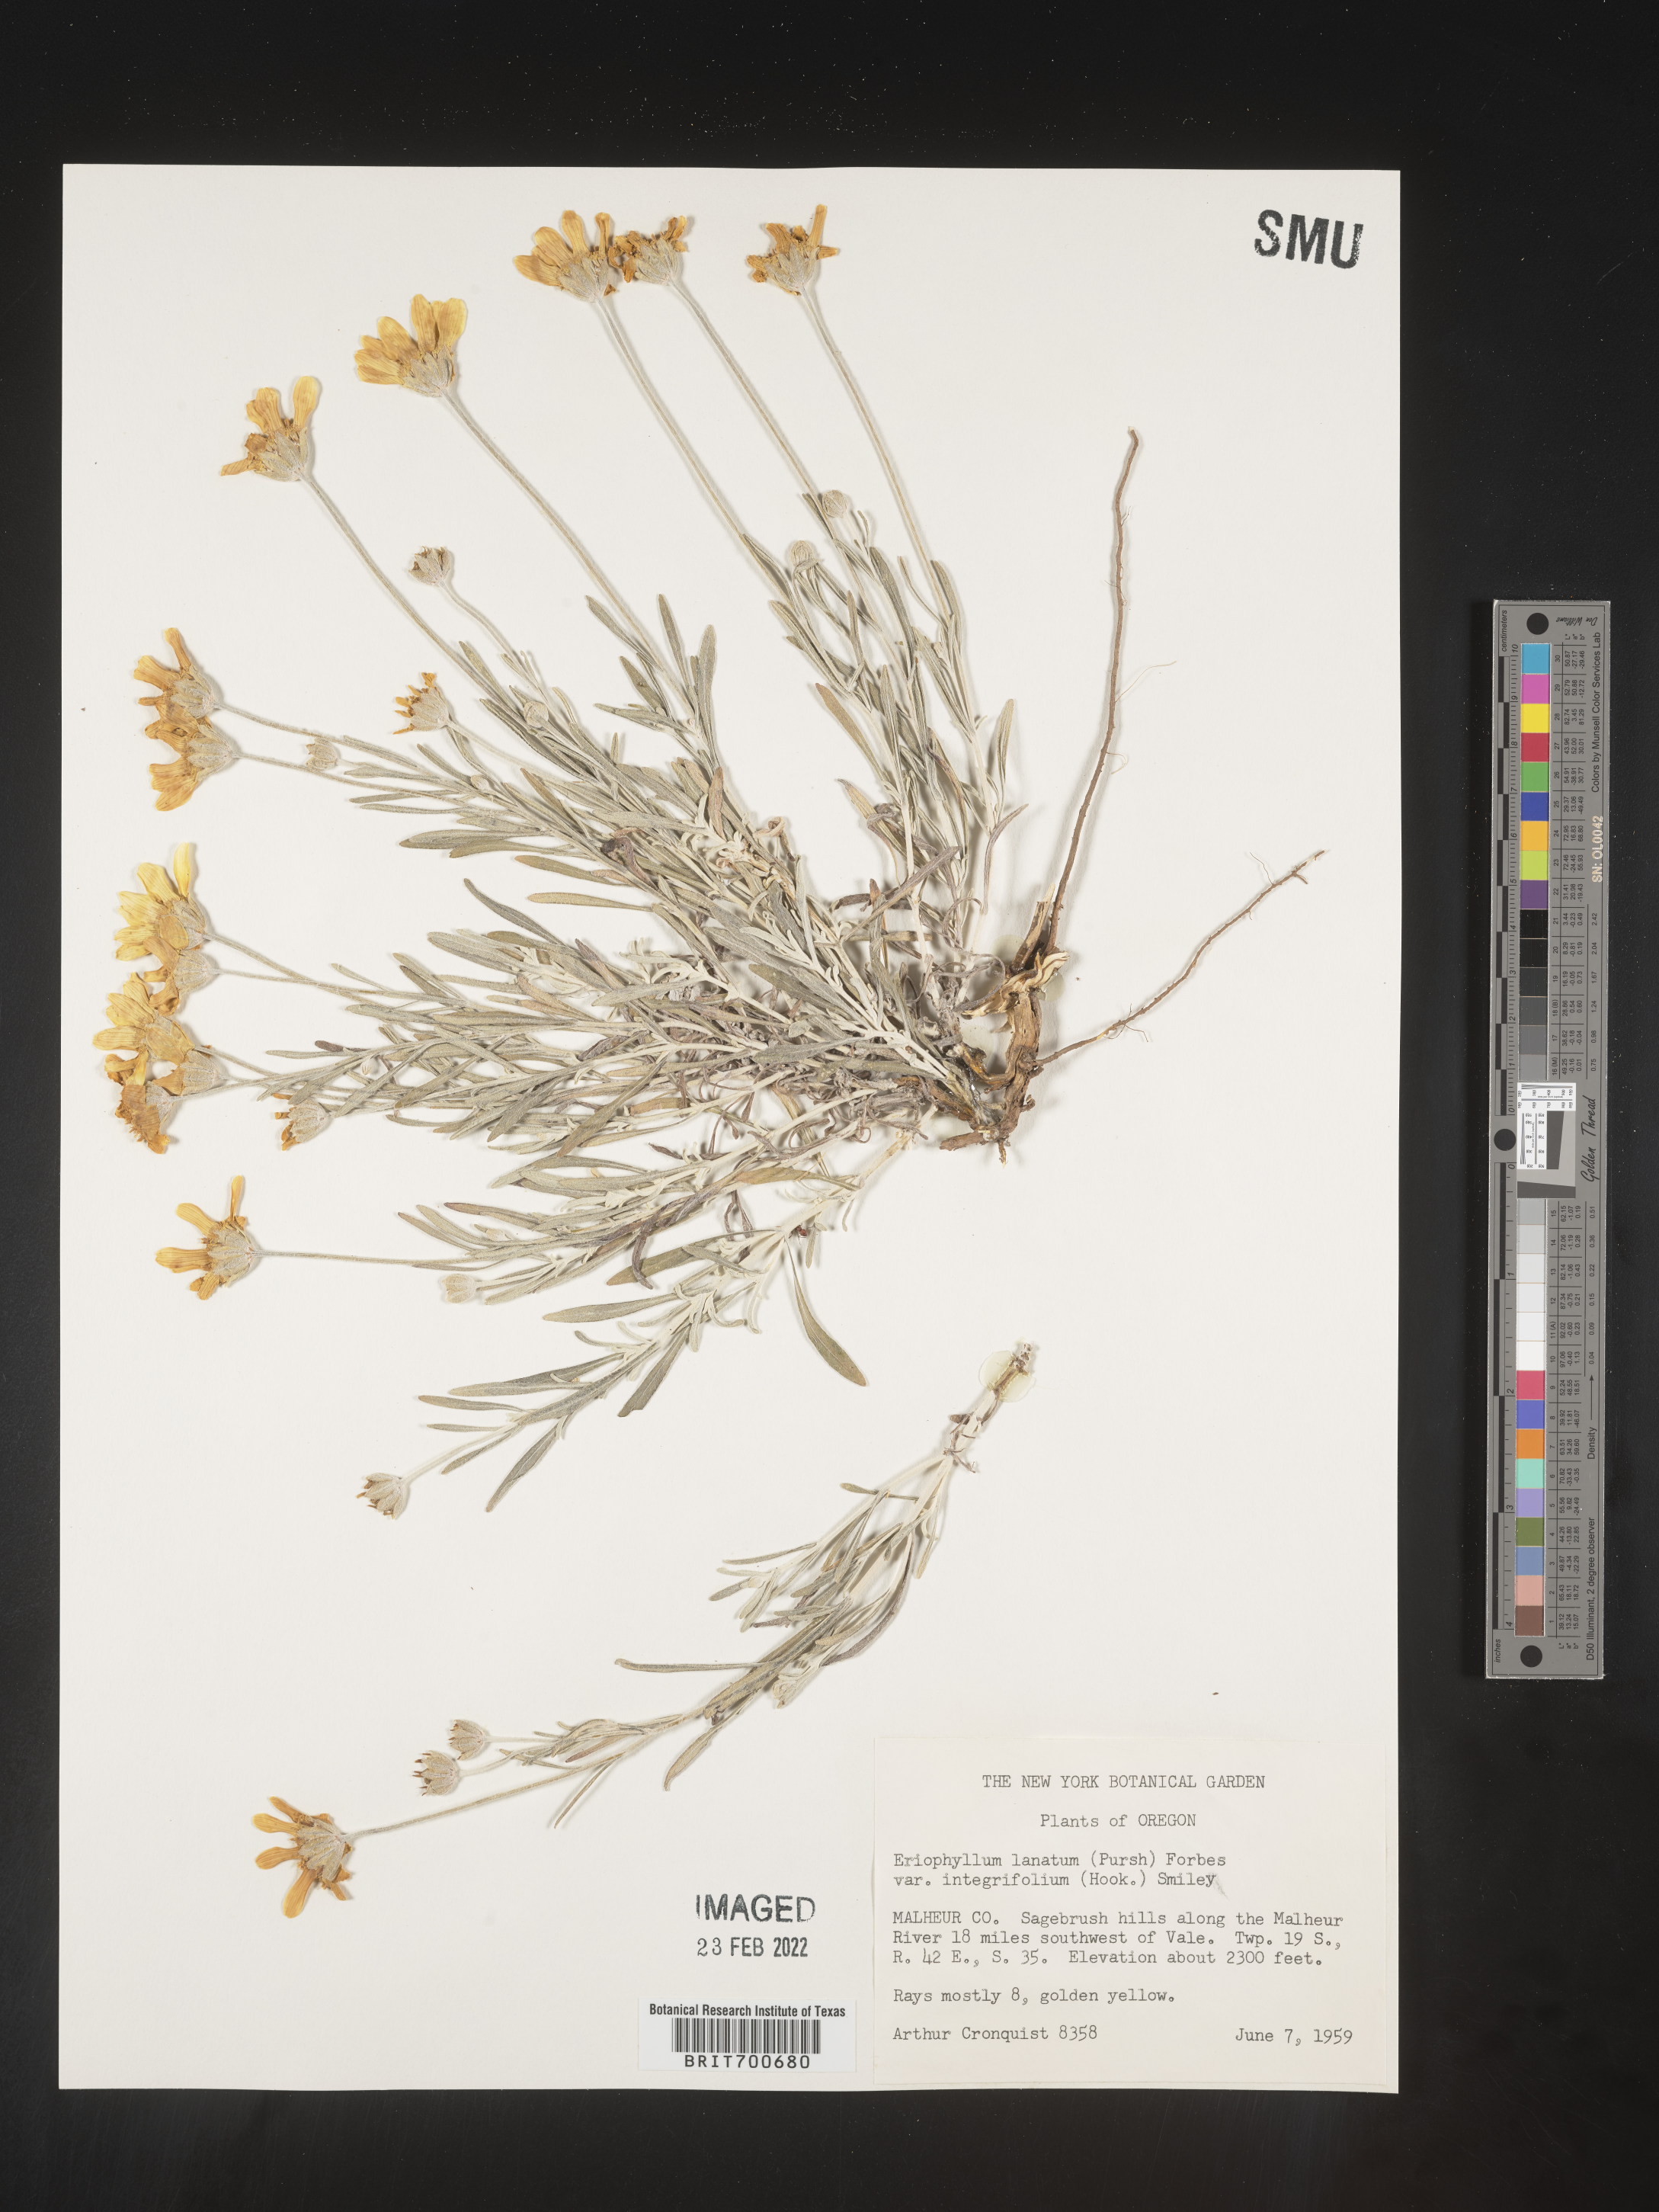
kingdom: Plantae
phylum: Tracheophyta
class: Magnoliopsida
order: Asterales
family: Asteraceae
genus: Eriophyllum
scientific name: Eriophyllum lanatum
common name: Common woolly-sunflower
